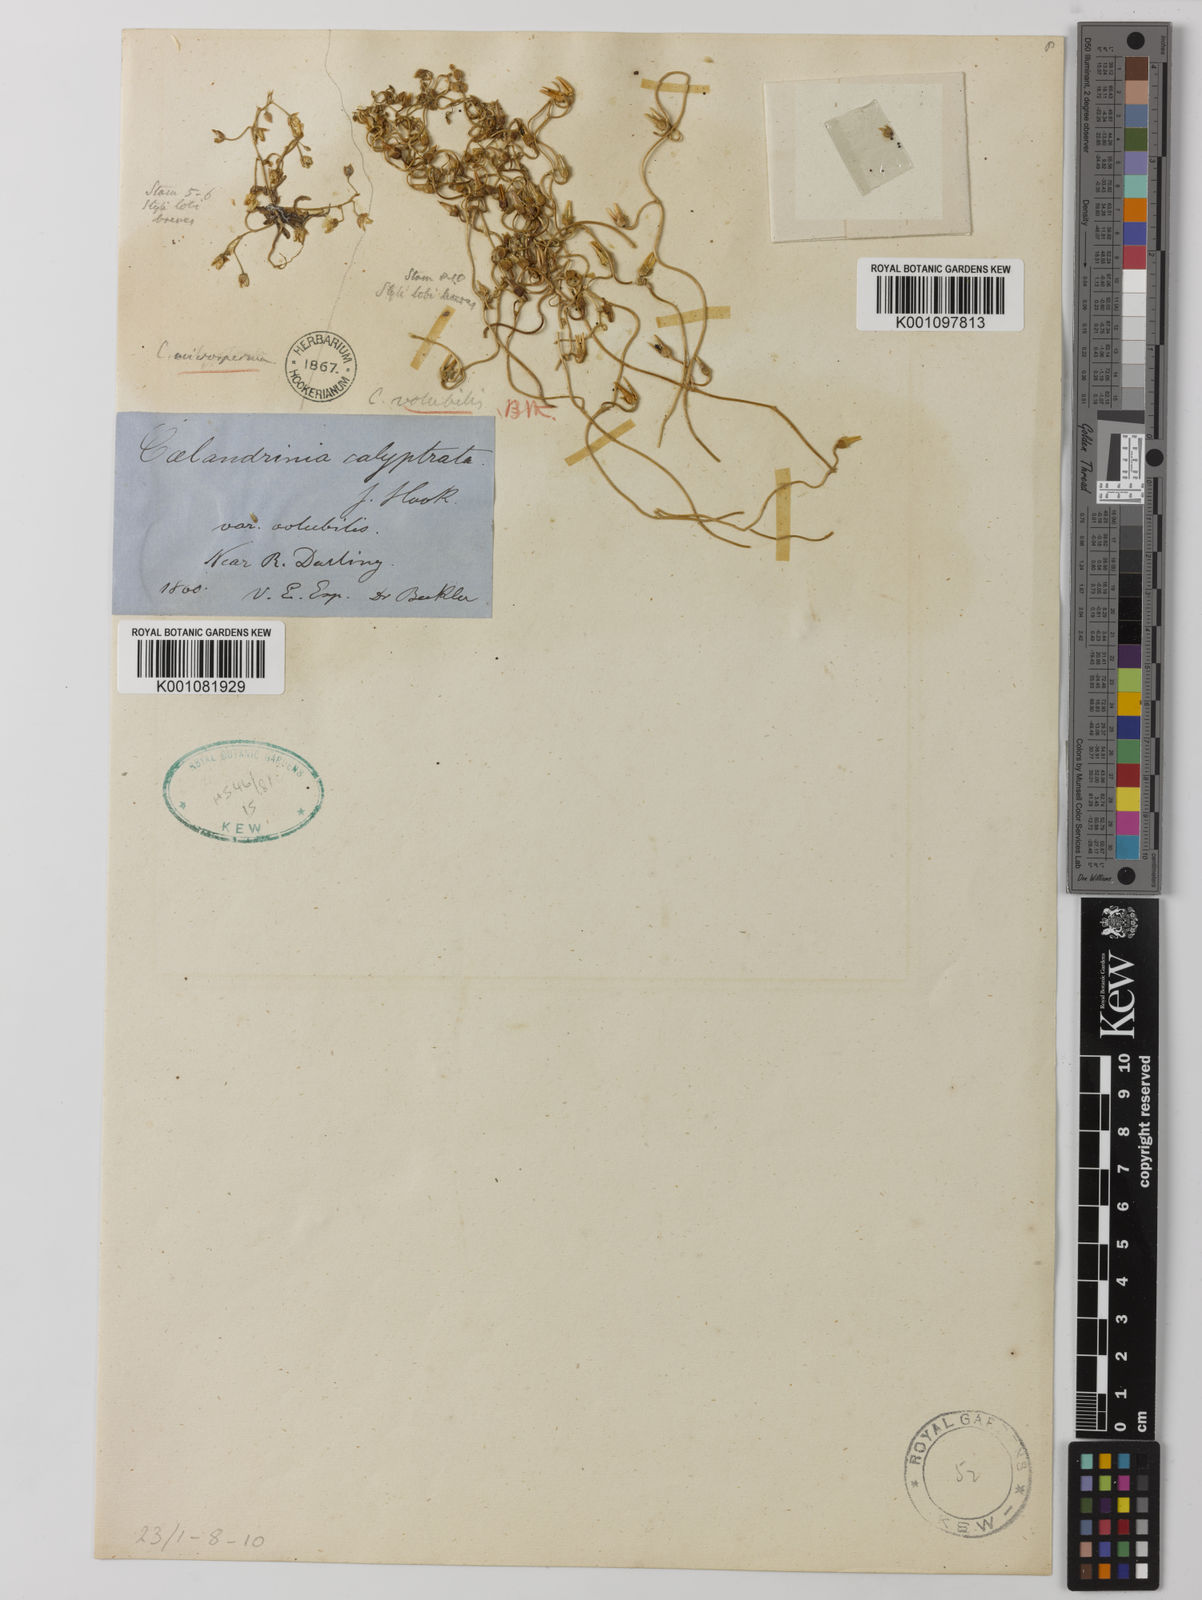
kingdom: Plantae
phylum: Tracheophyta
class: Magnoliopsida
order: Caryophyllales
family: Montiaceae
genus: Rumicastrum
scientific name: Rumicastrum calyptratum
